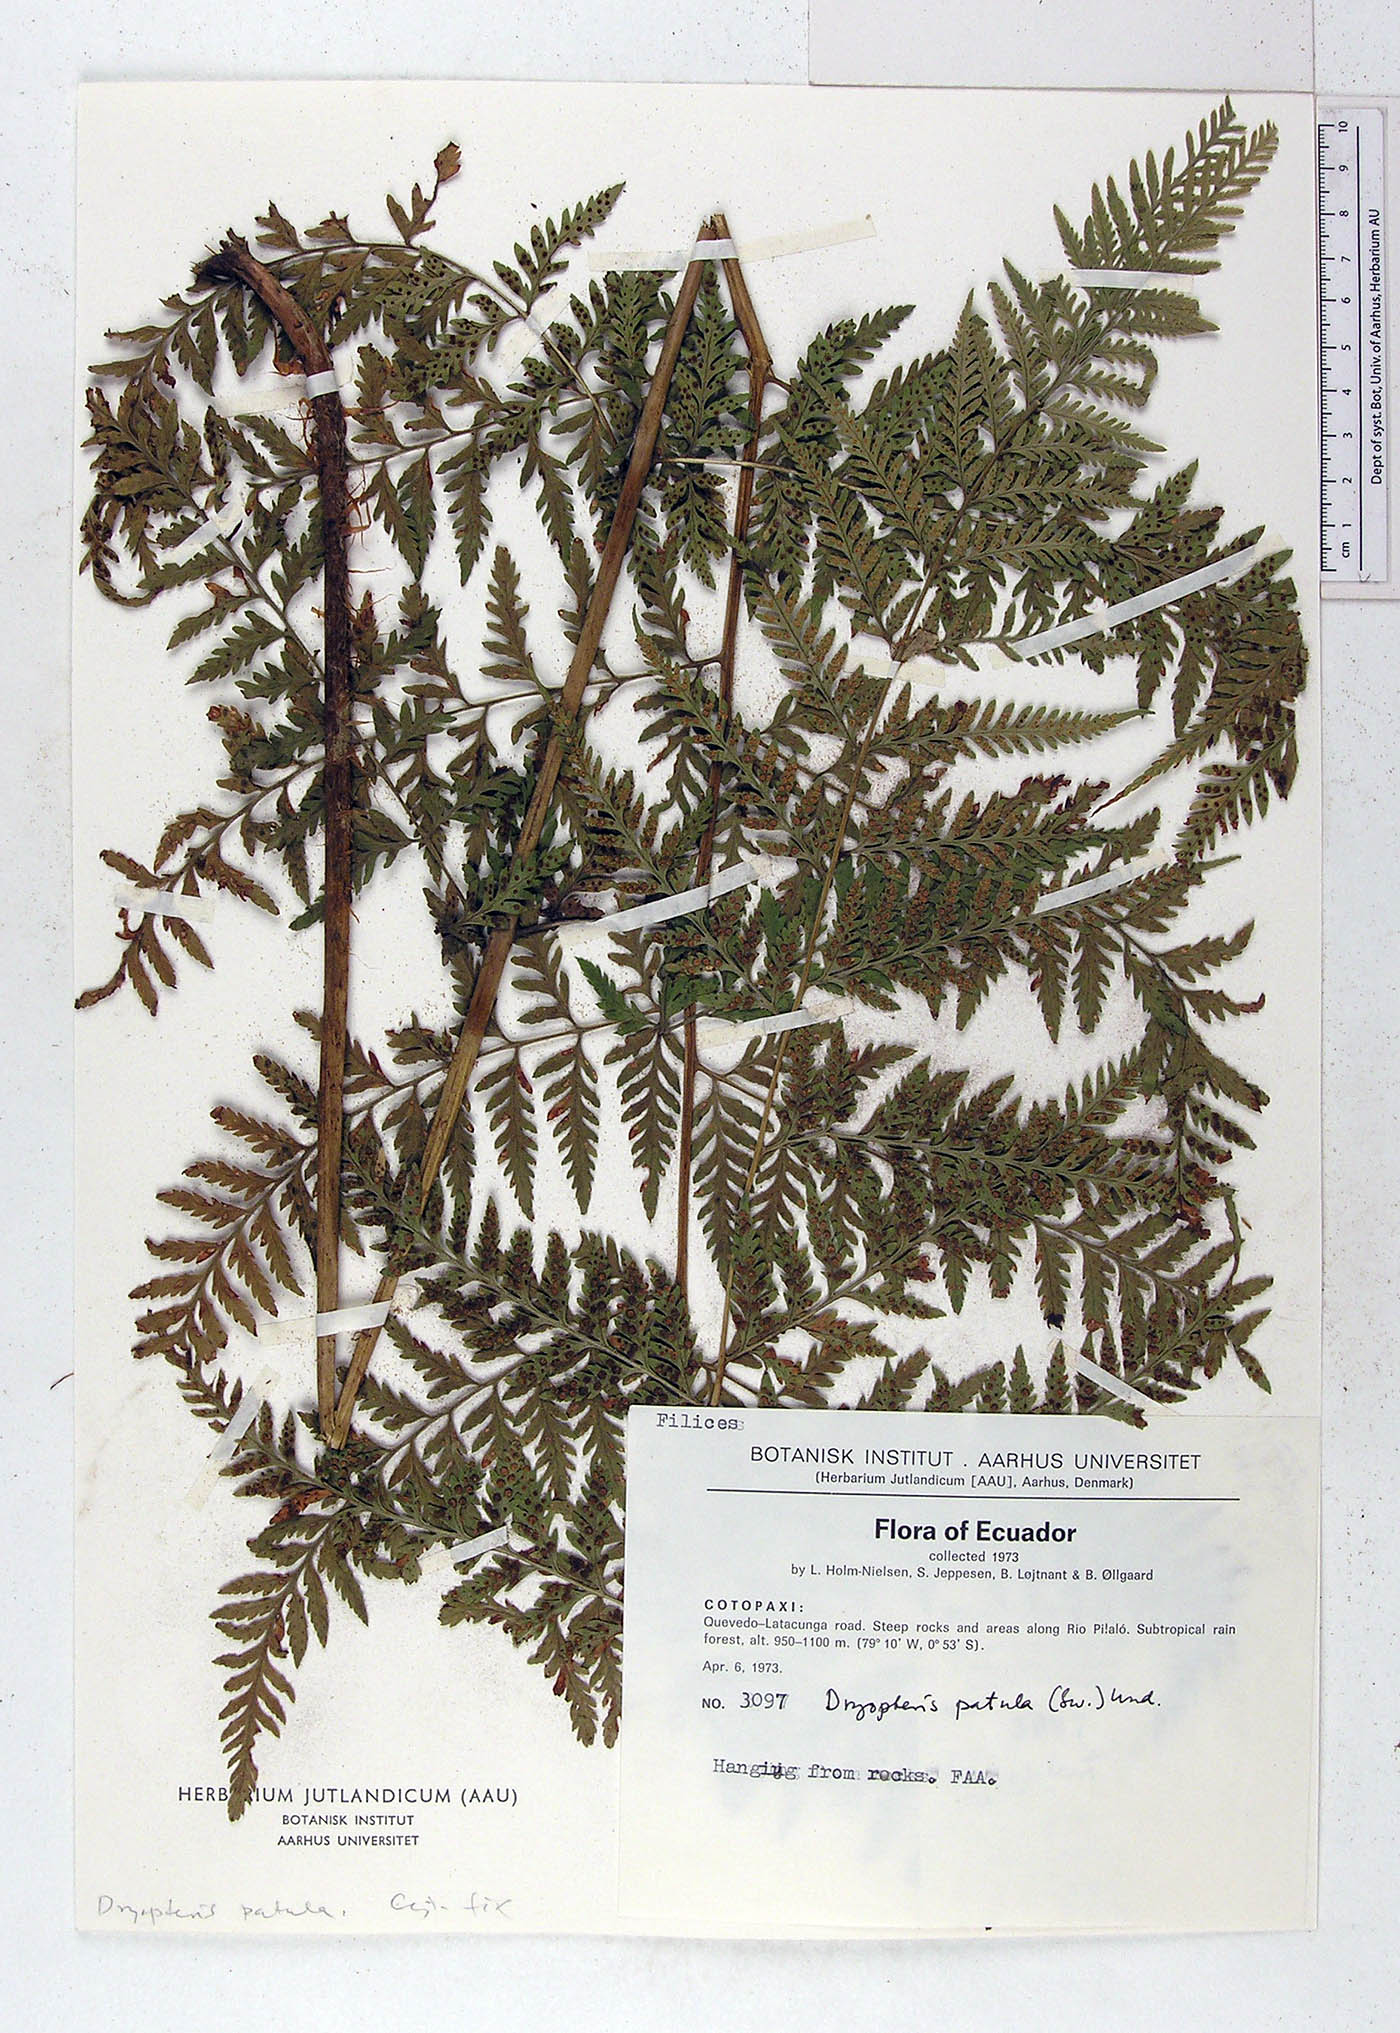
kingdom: Plantae
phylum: Tracheophyta
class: Polypodiopsida
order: Polypodiales
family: Dryopteridaceae
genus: Dryopteris
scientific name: Dryopteris patula
